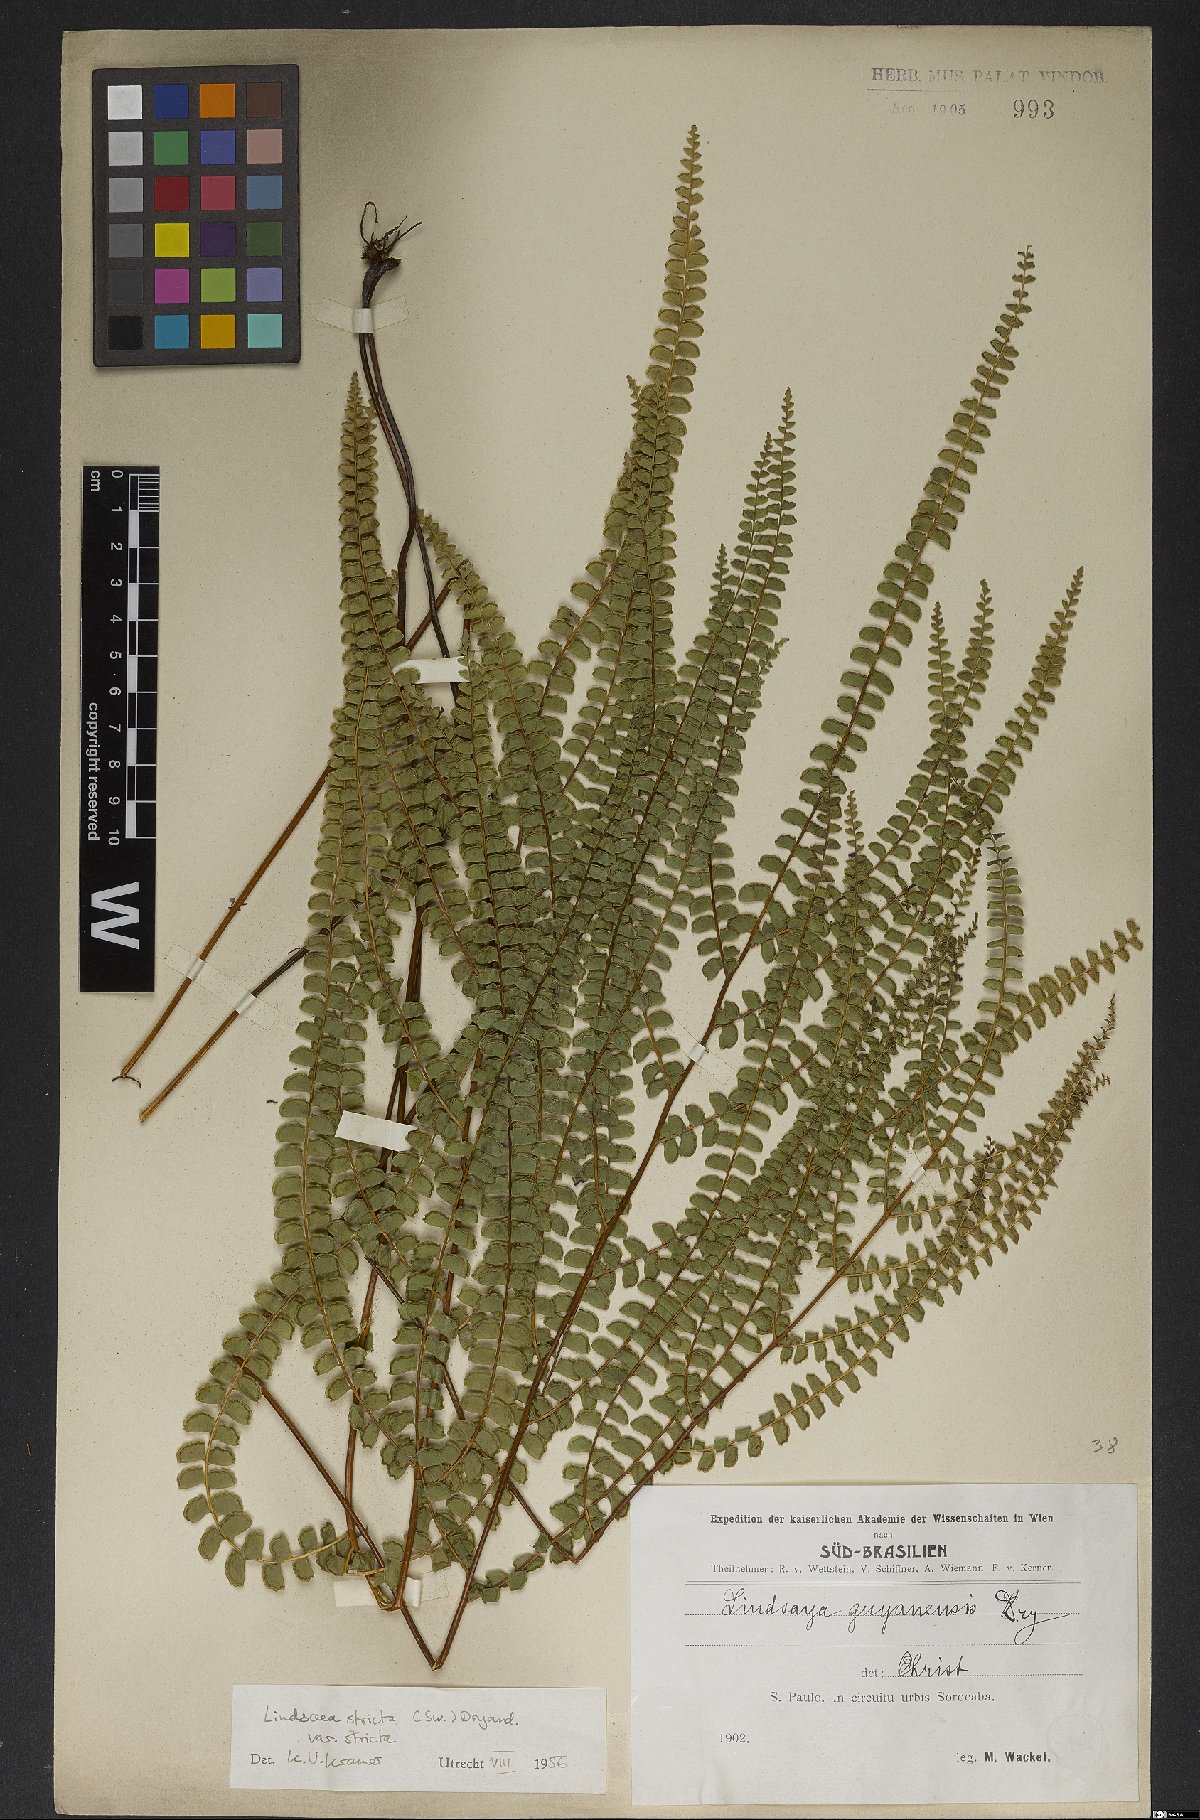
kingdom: Plantae
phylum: Tracheophyta
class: Polypodiopsida
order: Polypodiales
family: Lindsaeaceae
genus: Lindsaea
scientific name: Lindsaea stricta
